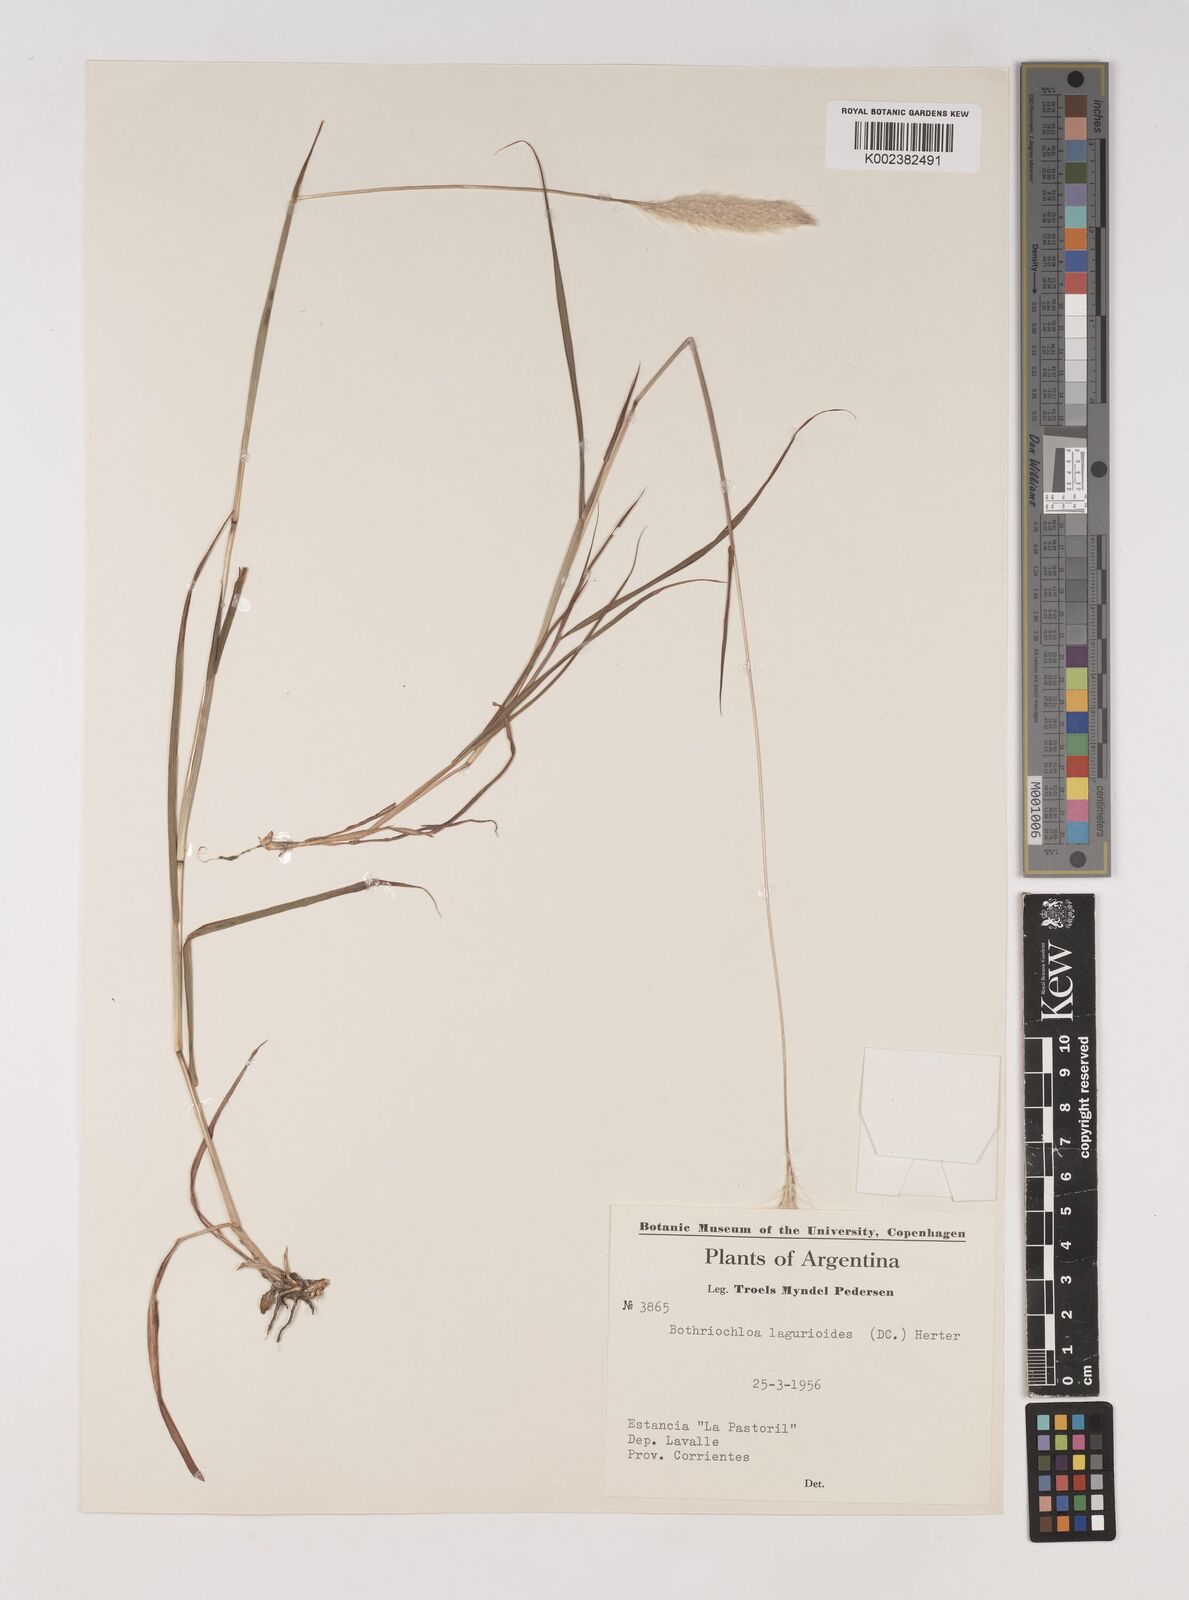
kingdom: Plantae
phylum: Tracheophyta
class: Liliopsida
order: Poales
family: Poaceae
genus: Bothriochloa
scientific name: Bothriochloa laguroides
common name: Silver bluestem
